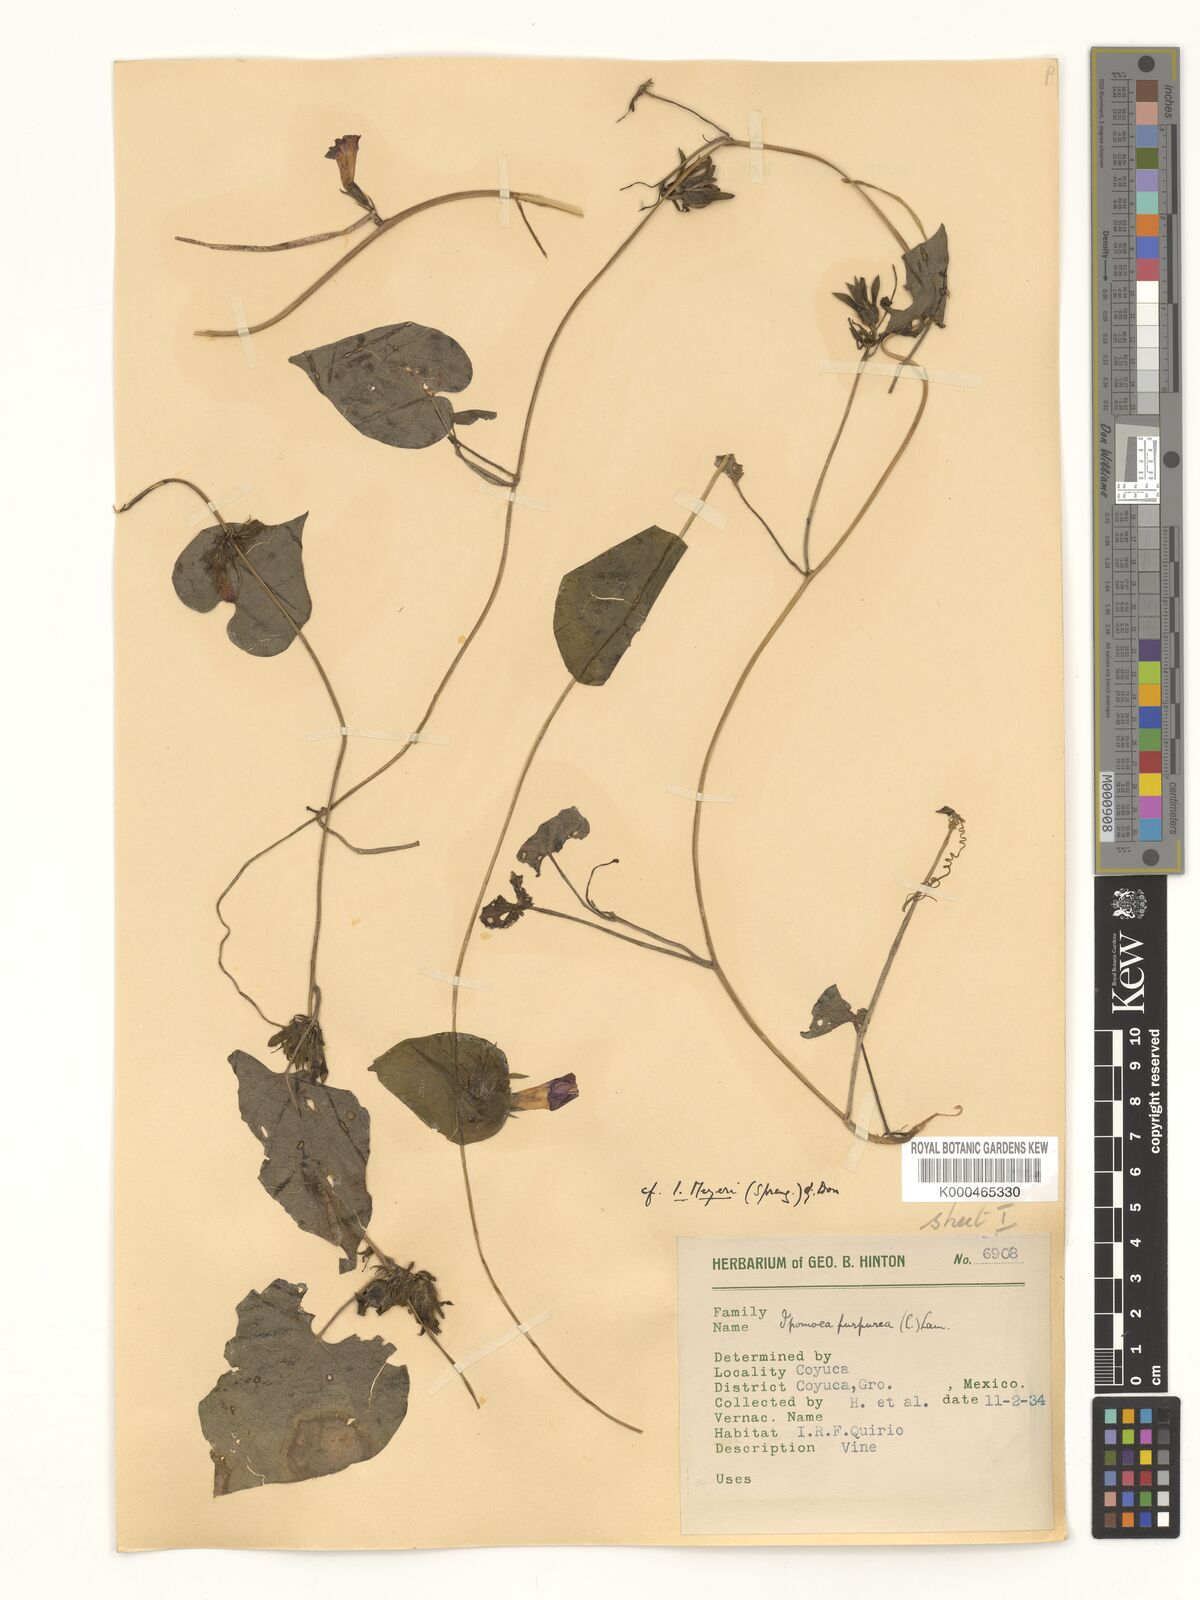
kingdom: Plantae
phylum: Tracheophyta
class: Magnoliopsida
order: Solanales
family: Convolvulaceae
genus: Ipomoea
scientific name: Ipomoea meyeri
